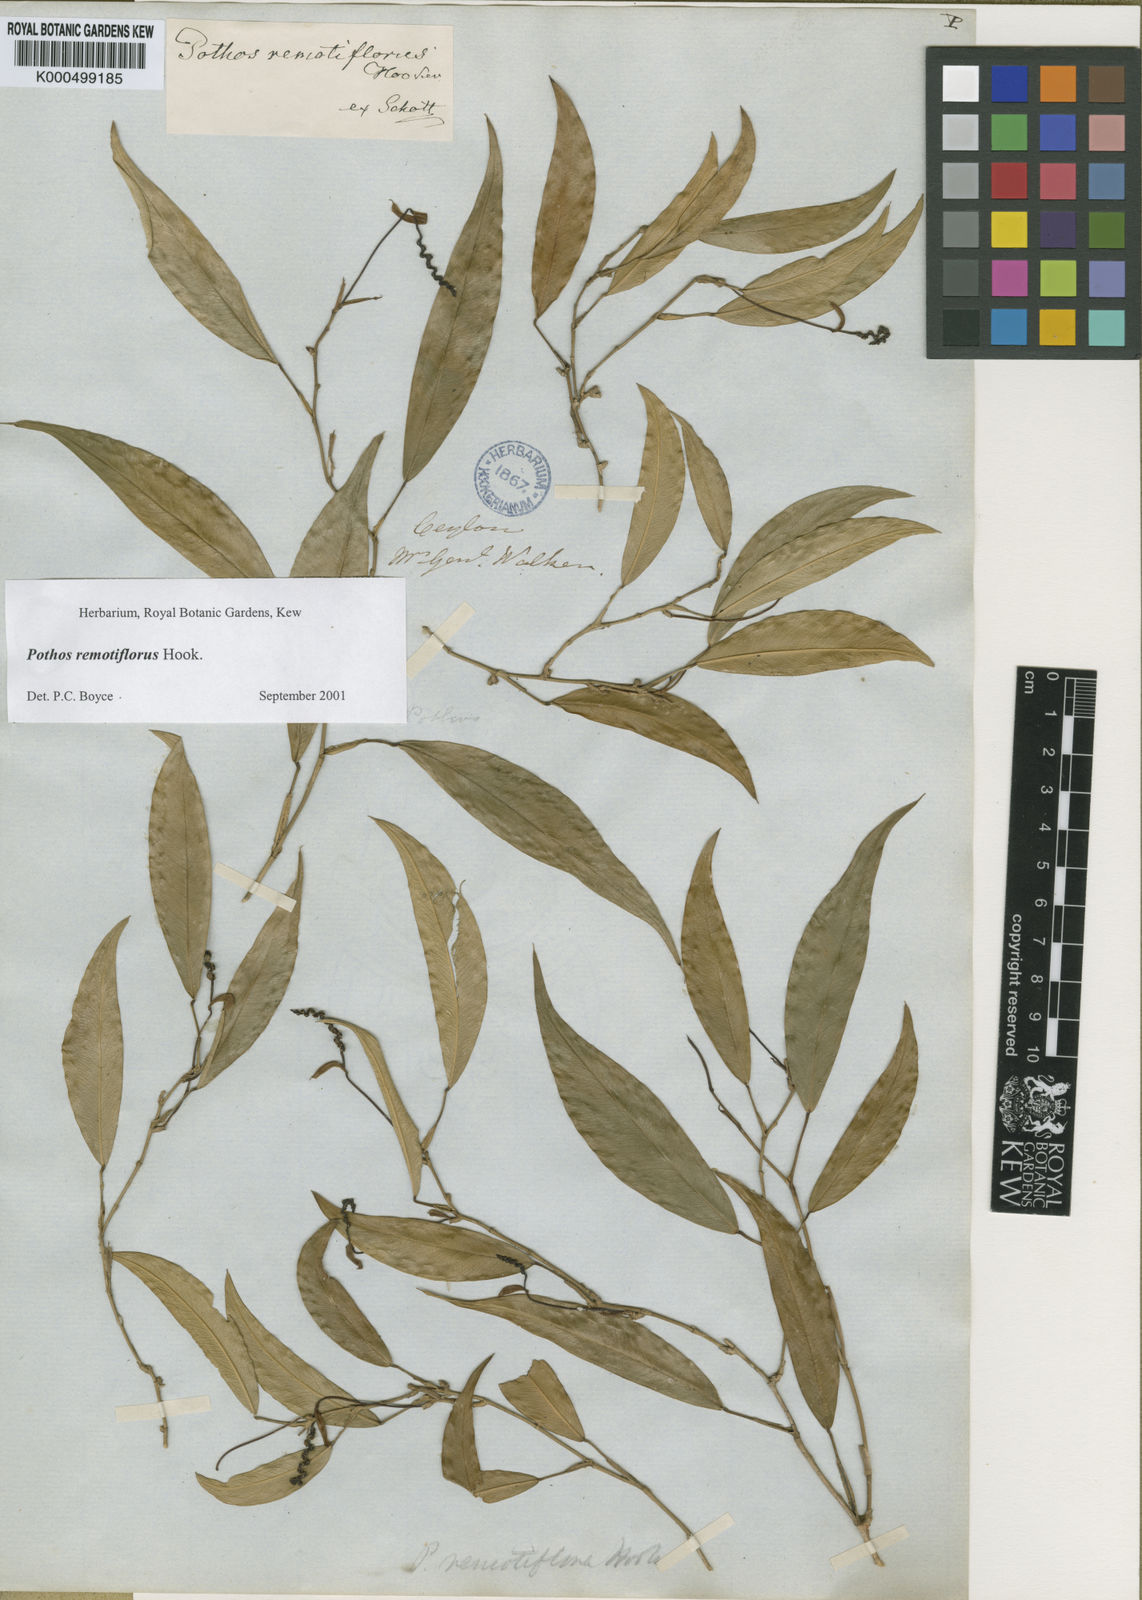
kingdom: Plantae
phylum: Tracheophyta
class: Liliopsida
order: Alismatales
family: Araceae
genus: Pothos
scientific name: Pothos remotiflorus
